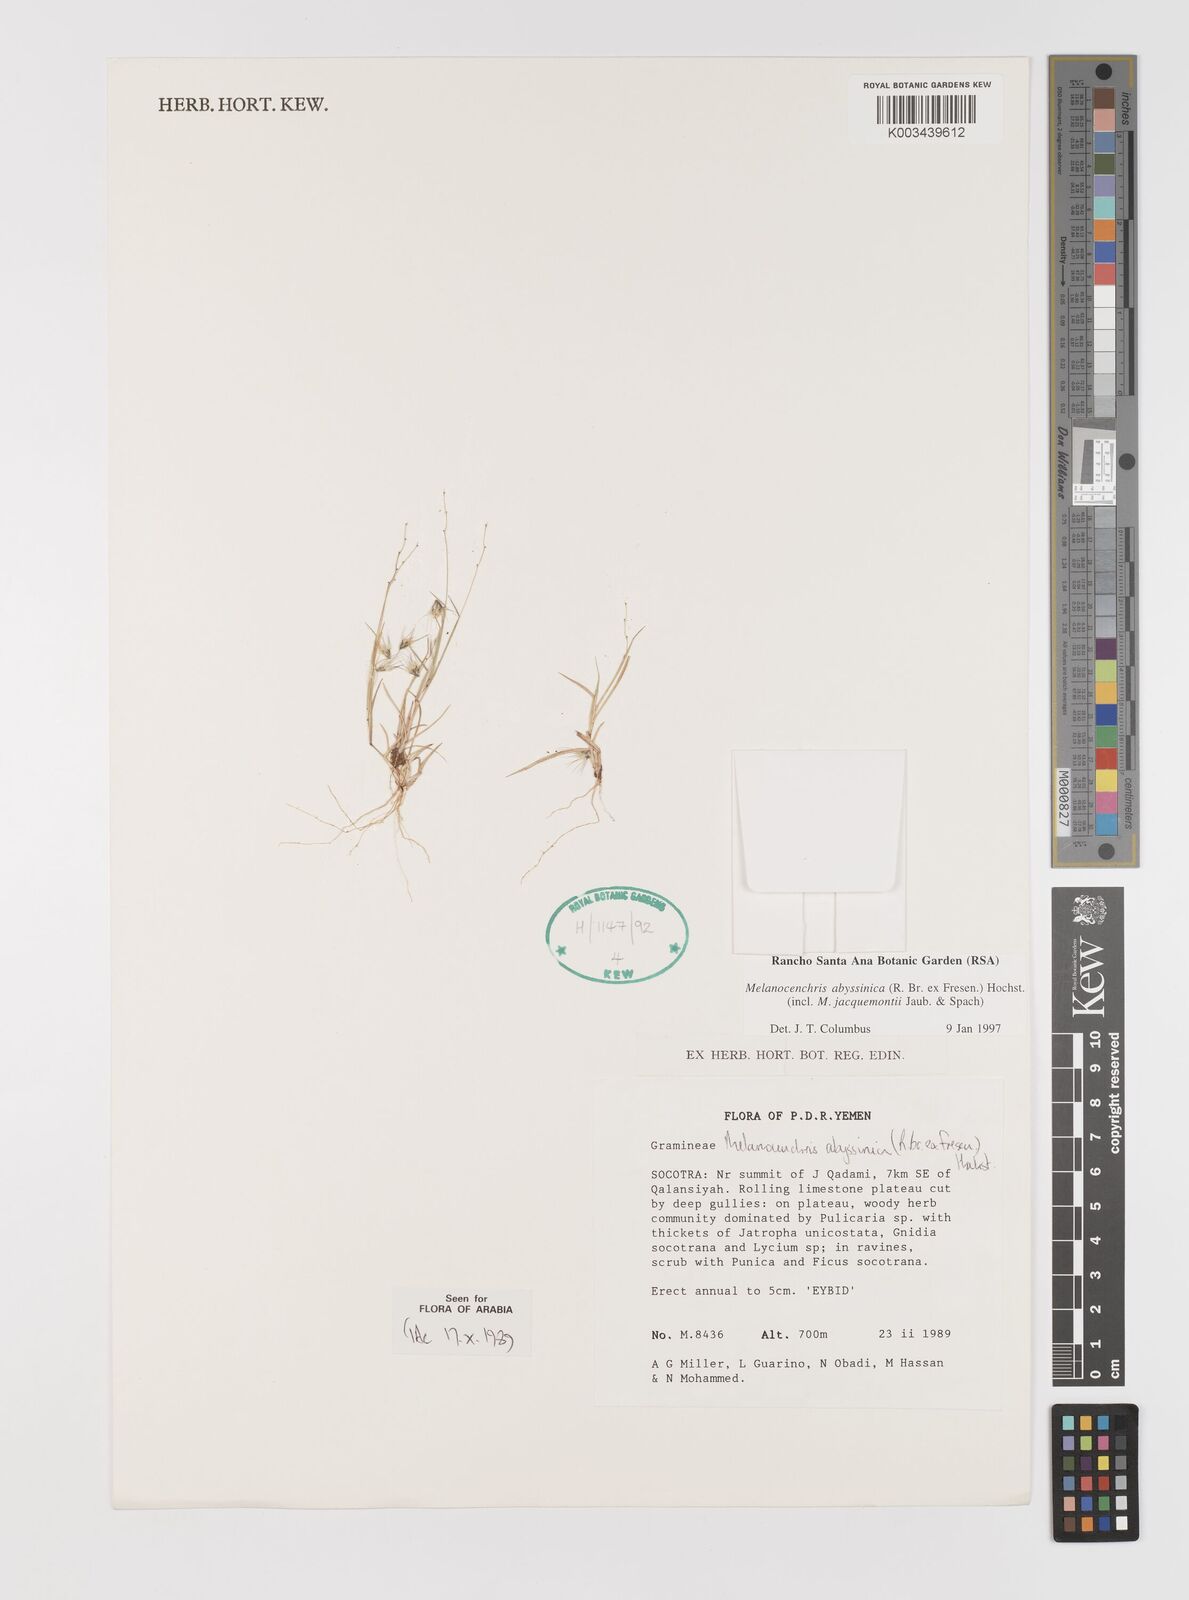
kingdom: Plantae
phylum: Tracheophyta
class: Liliopsida
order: Poales
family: Poaceae
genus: Melanocenchris
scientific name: Melanocenchris abyssinica
